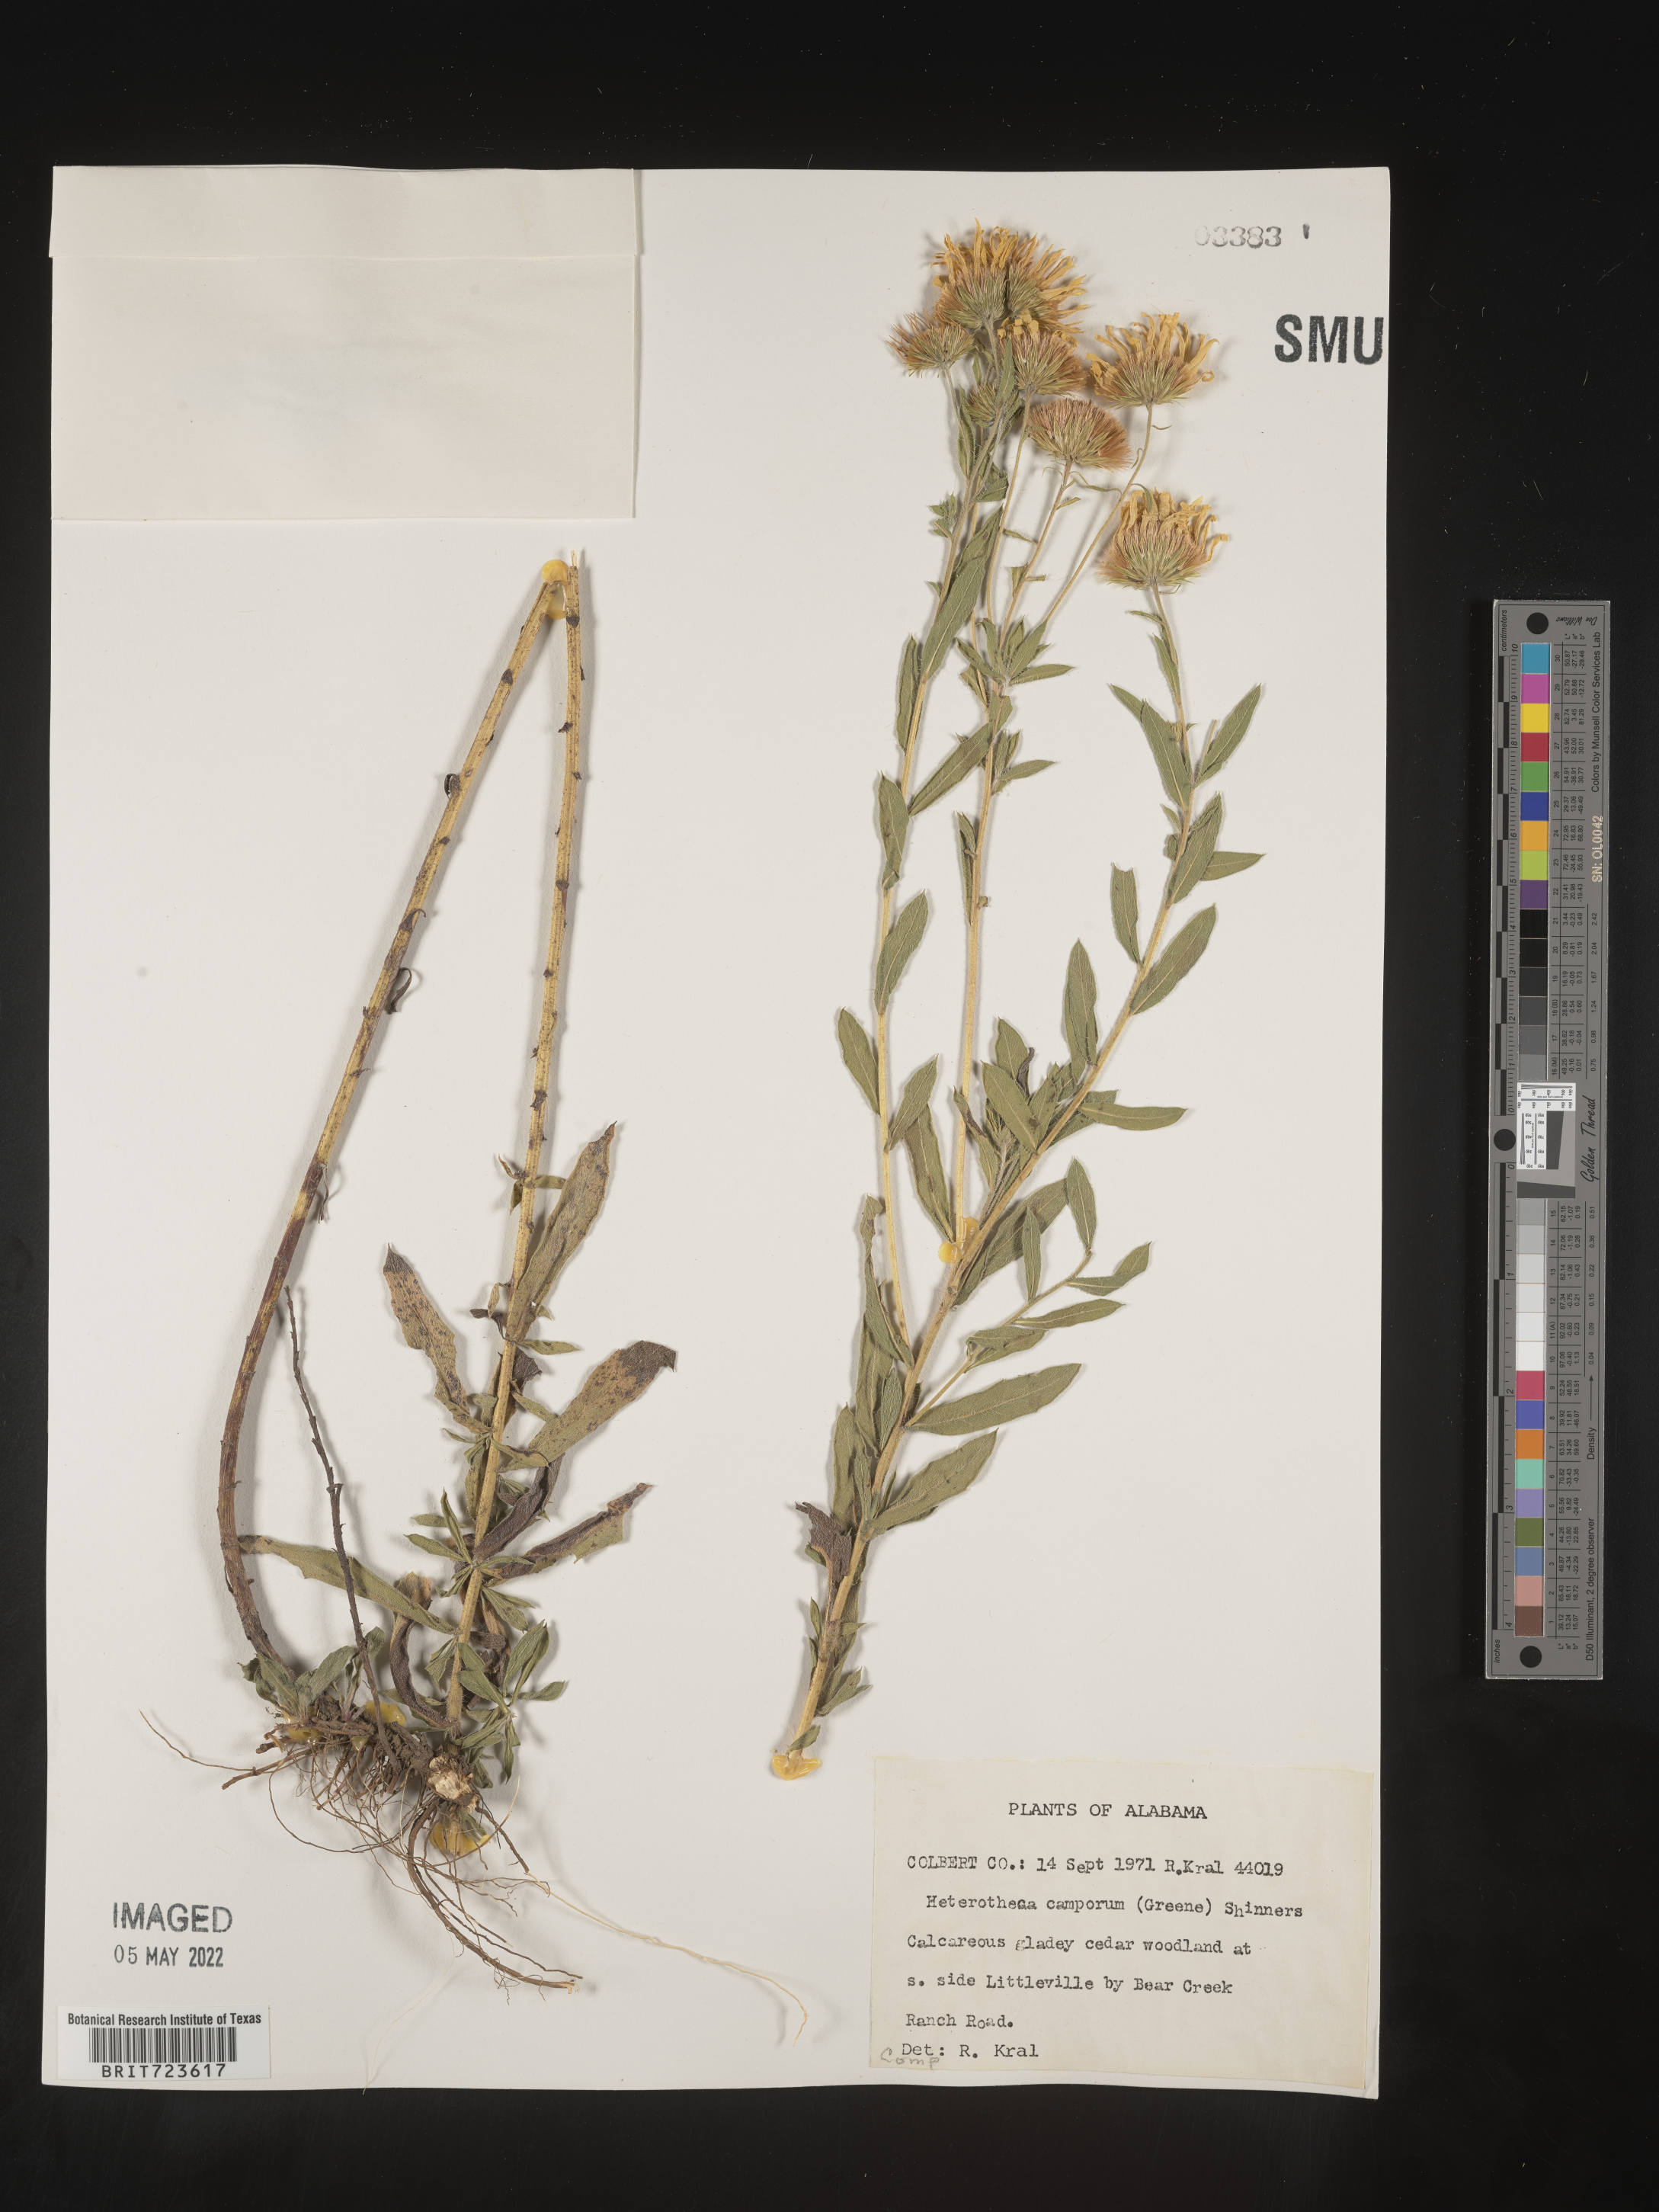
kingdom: Plantae
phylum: Tracheophyta
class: Magnoliopsida
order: Asterales
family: Asteraceae
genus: Heterotheca
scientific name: Heterotheca camporum
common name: Prairie golden-aster
